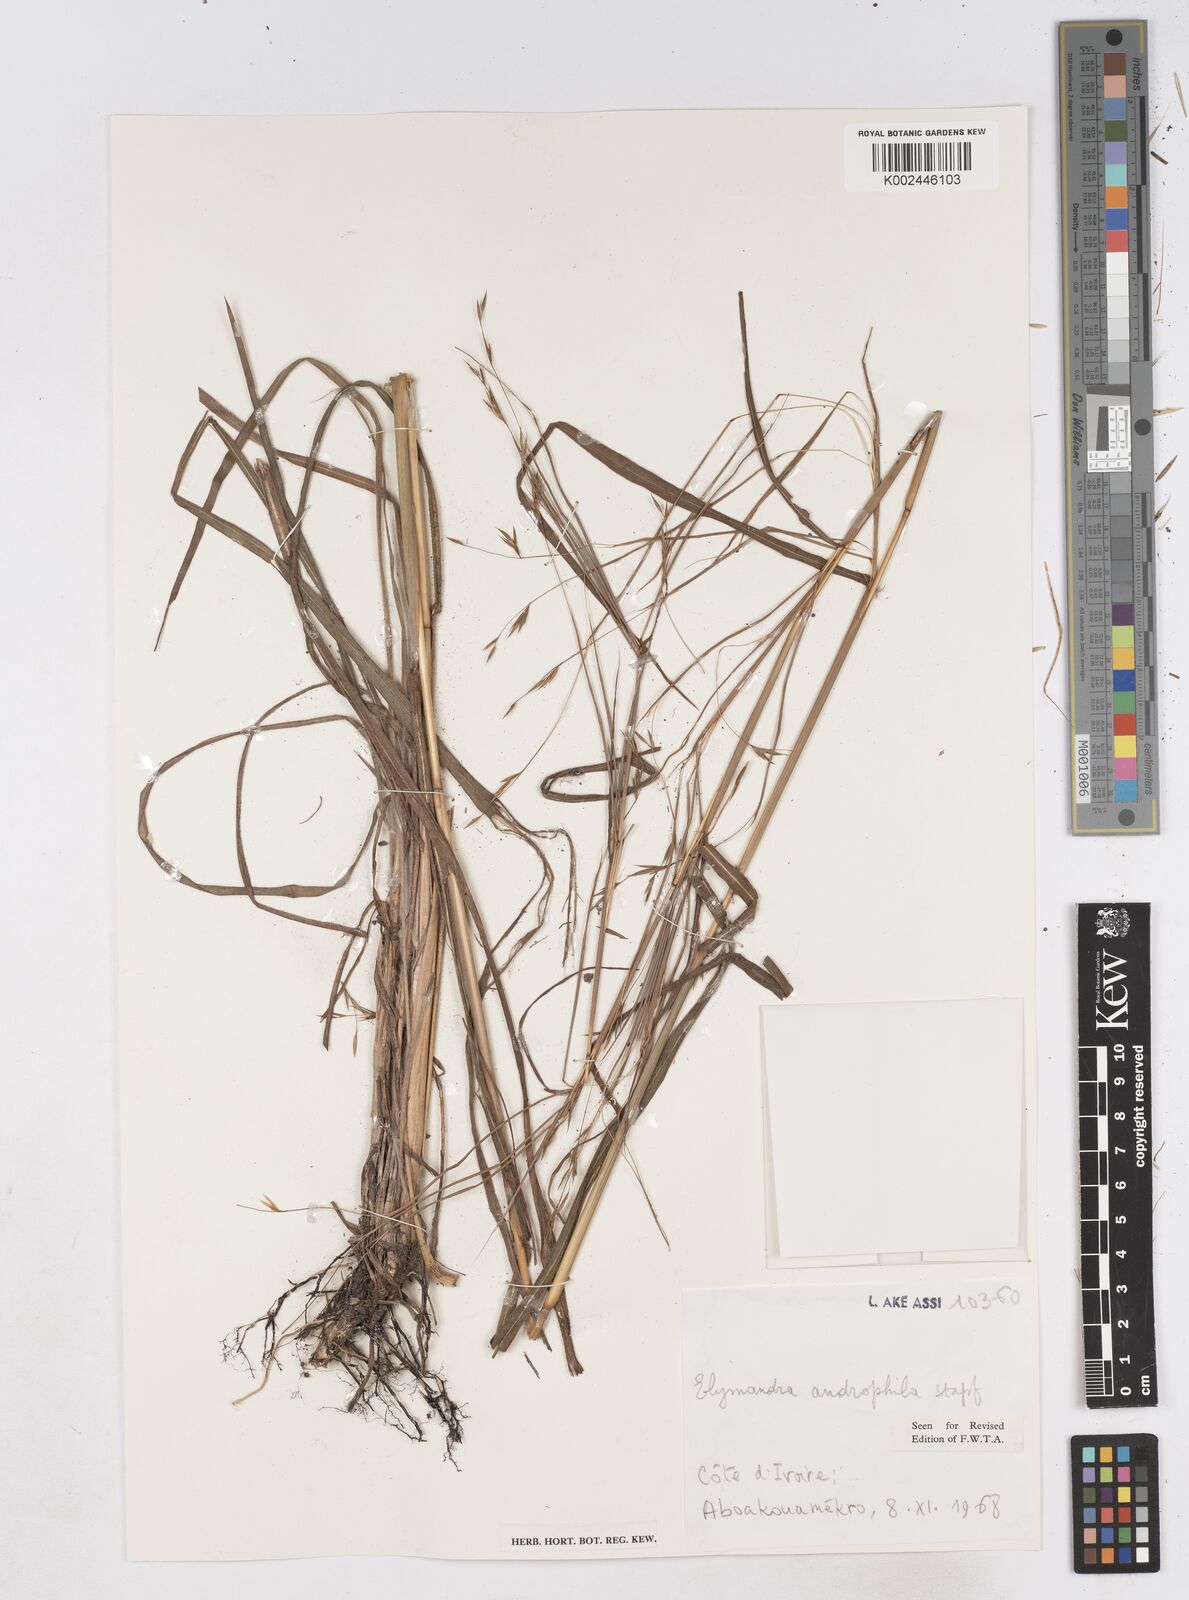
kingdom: Plantae
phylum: Tracheophyta
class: Liliopsida
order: Poales
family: Poaceae
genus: Elymandra
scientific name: Elymandra androphila
